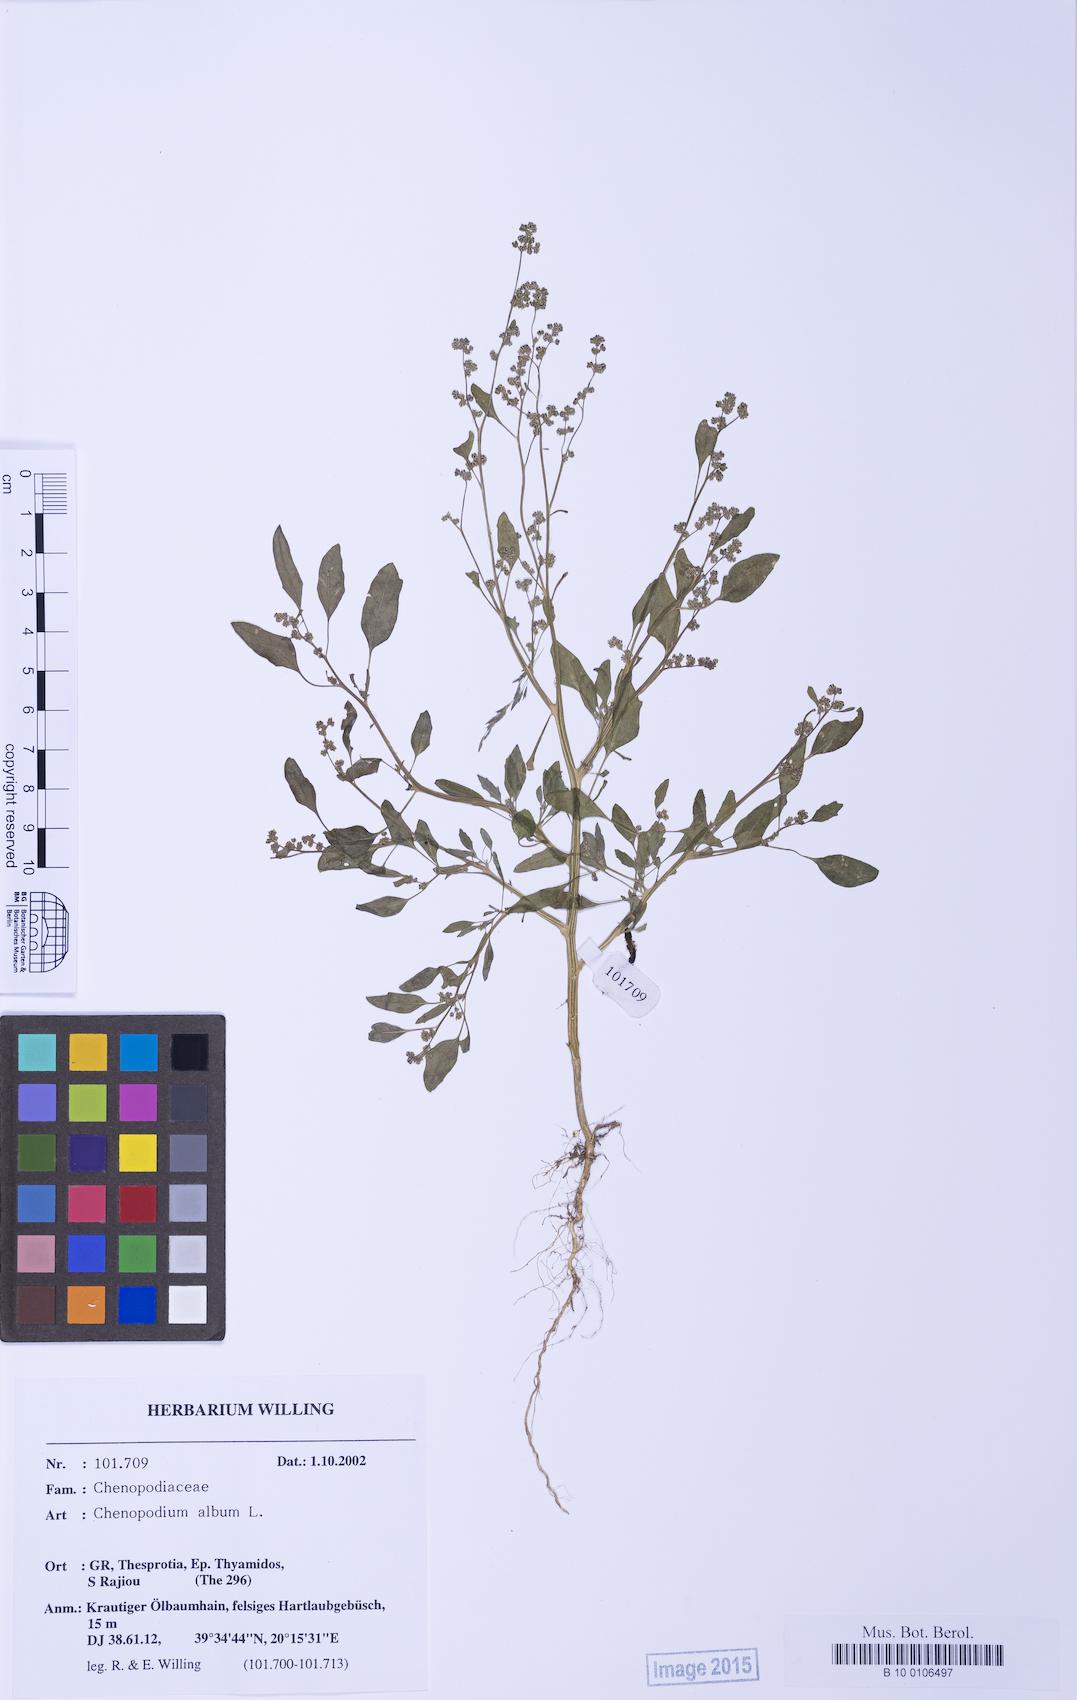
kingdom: Plantae
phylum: Tracheophyta
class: Magnoliopsida
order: Caryophyllales
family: Amaranthaceae
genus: Chenopodium
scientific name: Chenopodium striatiforme
